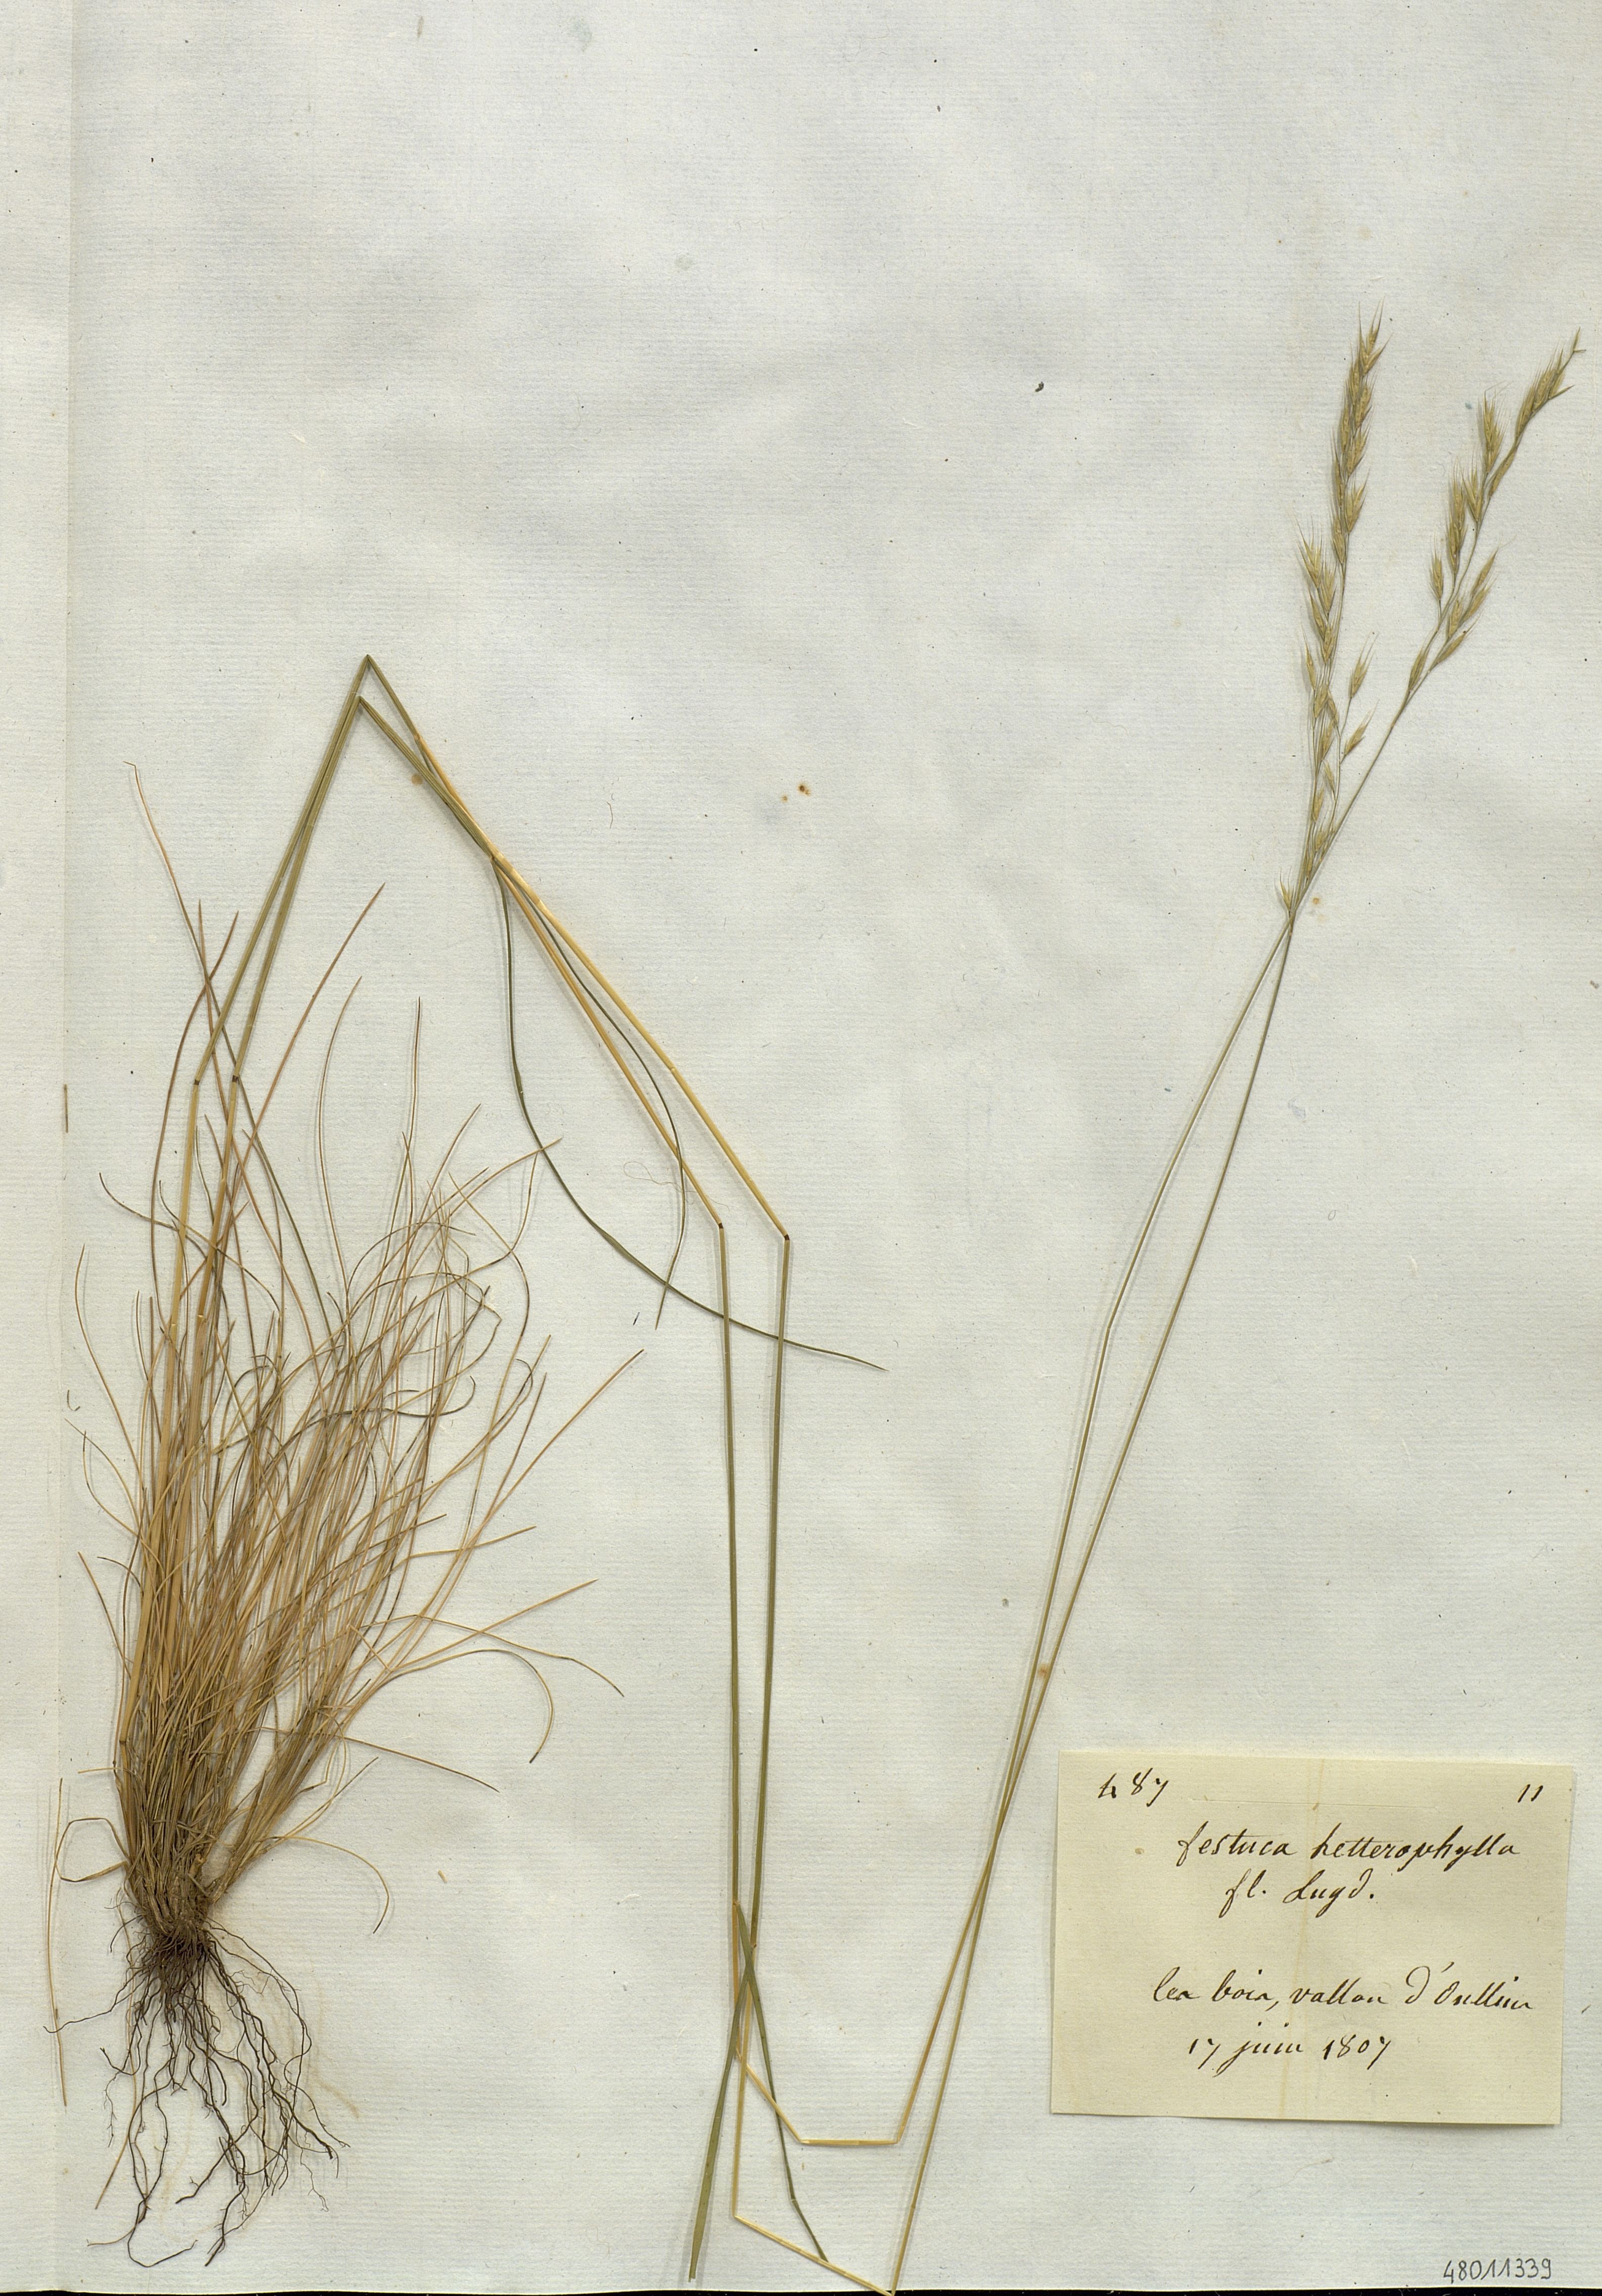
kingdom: Plantae
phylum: Tracheophyta
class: Liliopsida
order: Poales
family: Poaceae
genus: Festuca
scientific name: Festuca heterophylla
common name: Various-leaved fescue
